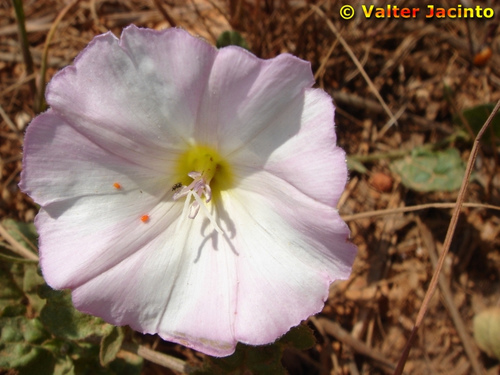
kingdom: Plantae
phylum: Tracheophyta
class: Magnoliopsida
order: Solanales
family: Convolvulaceae
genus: Convolvulus
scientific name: Convolvulus arvensis
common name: Field bindweed
